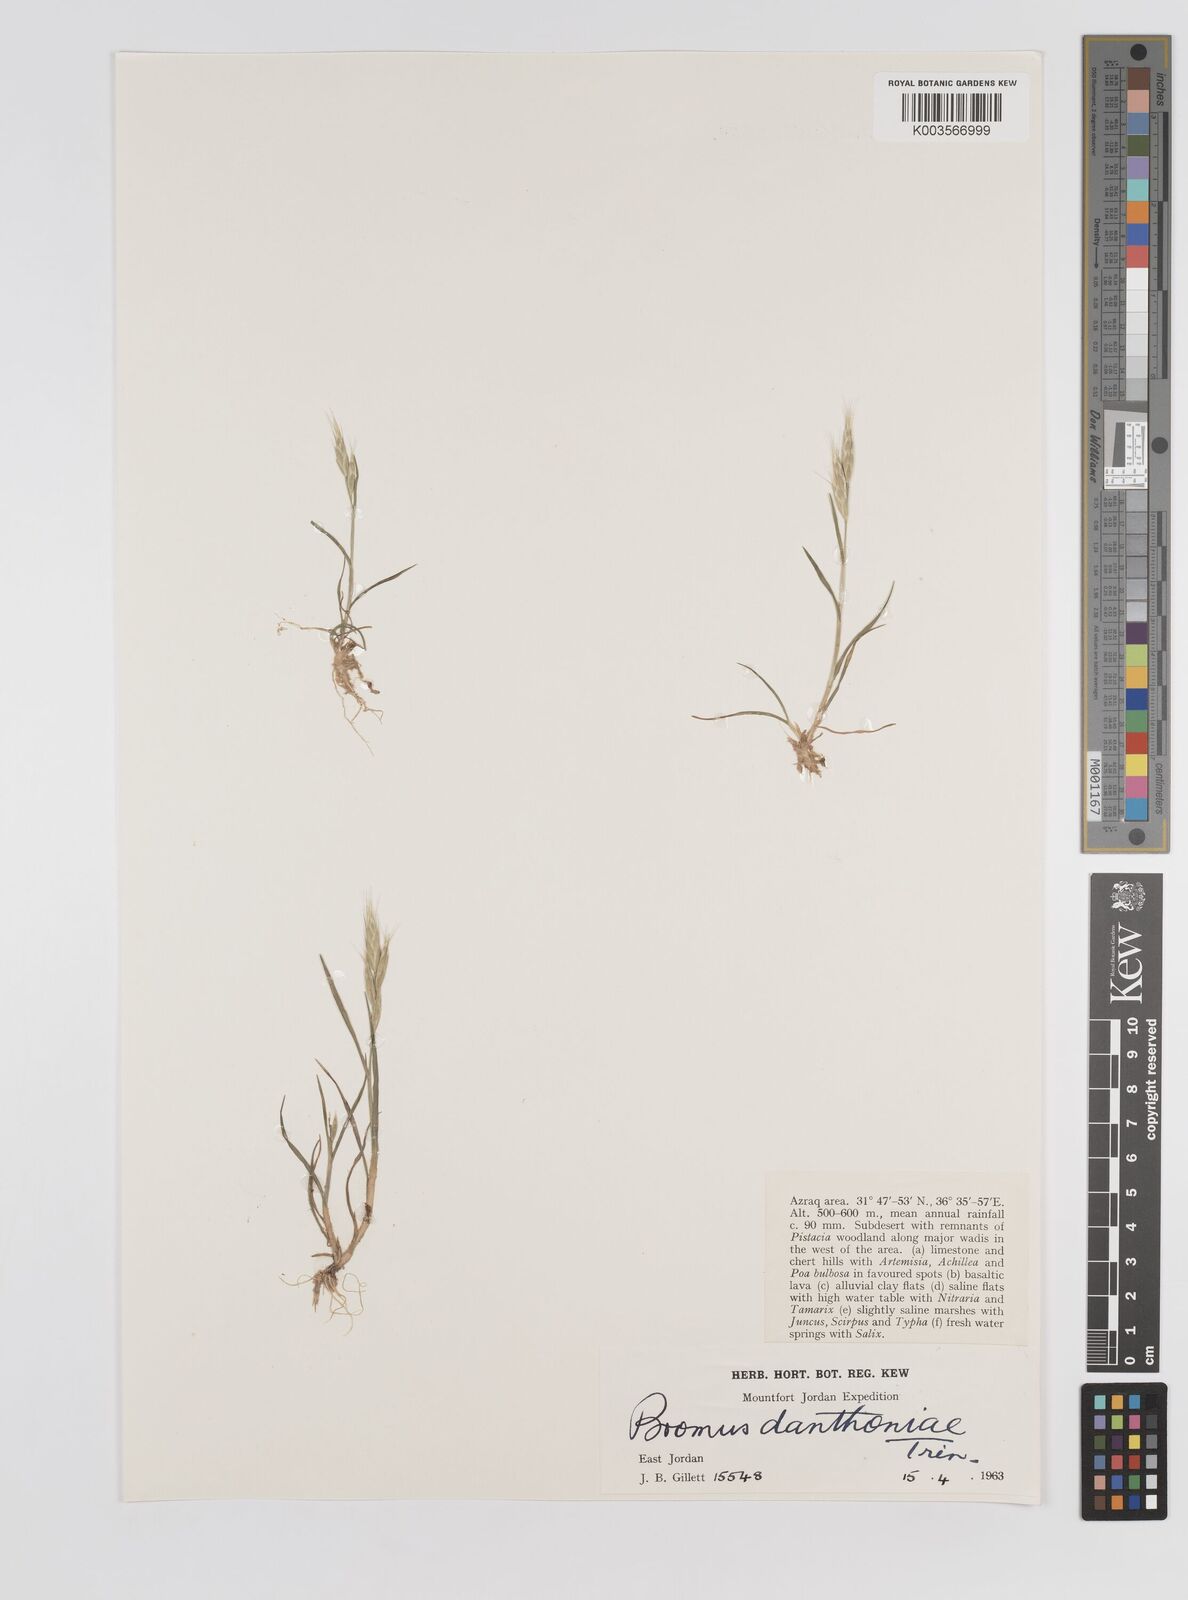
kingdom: Plantae
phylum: Tracheophyta
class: Liliopsida
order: Poales
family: Poaceae
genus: Bromus
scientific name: Bromus danthoniae
